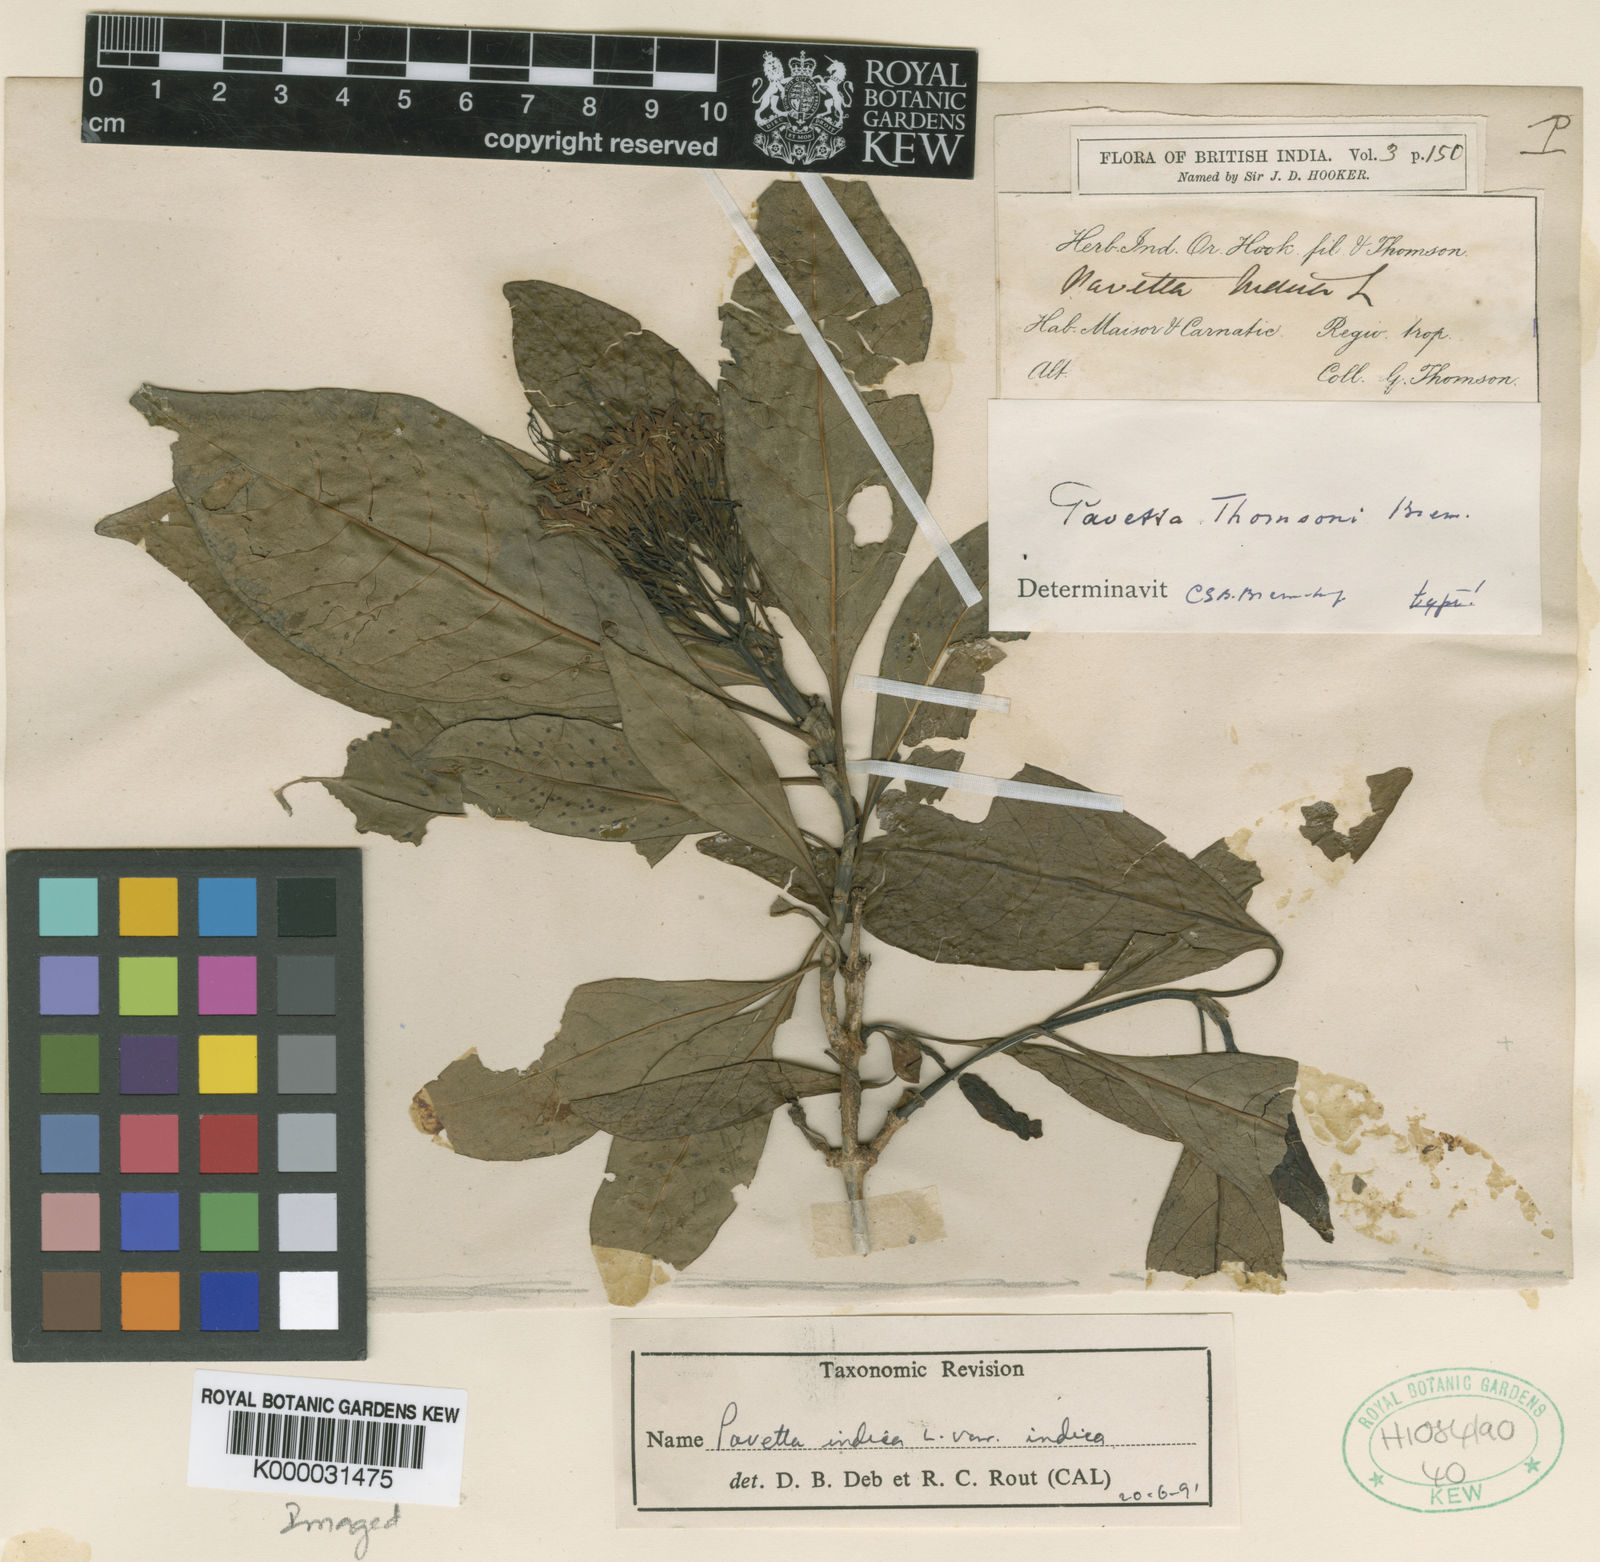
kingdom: Plantae
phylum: Tracheophyta
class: Magnoliopsida
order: Gentianales
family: Rubiaceae
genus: Pavetta
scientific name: Pavetta indica
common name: Indian pavetta
